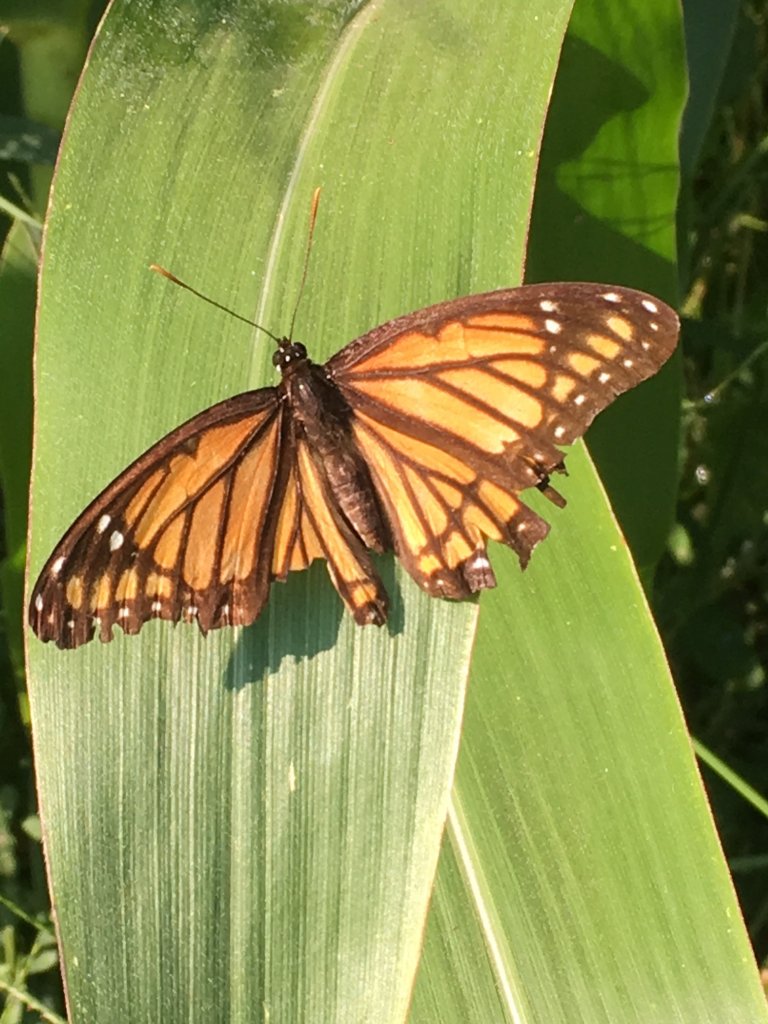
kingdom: Animalia
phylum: Arthropoda
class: Insecta
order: Lepidoptera
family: Nymphalidae
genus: Limenitis
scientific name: Limenitis archippus
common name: Viceroy
